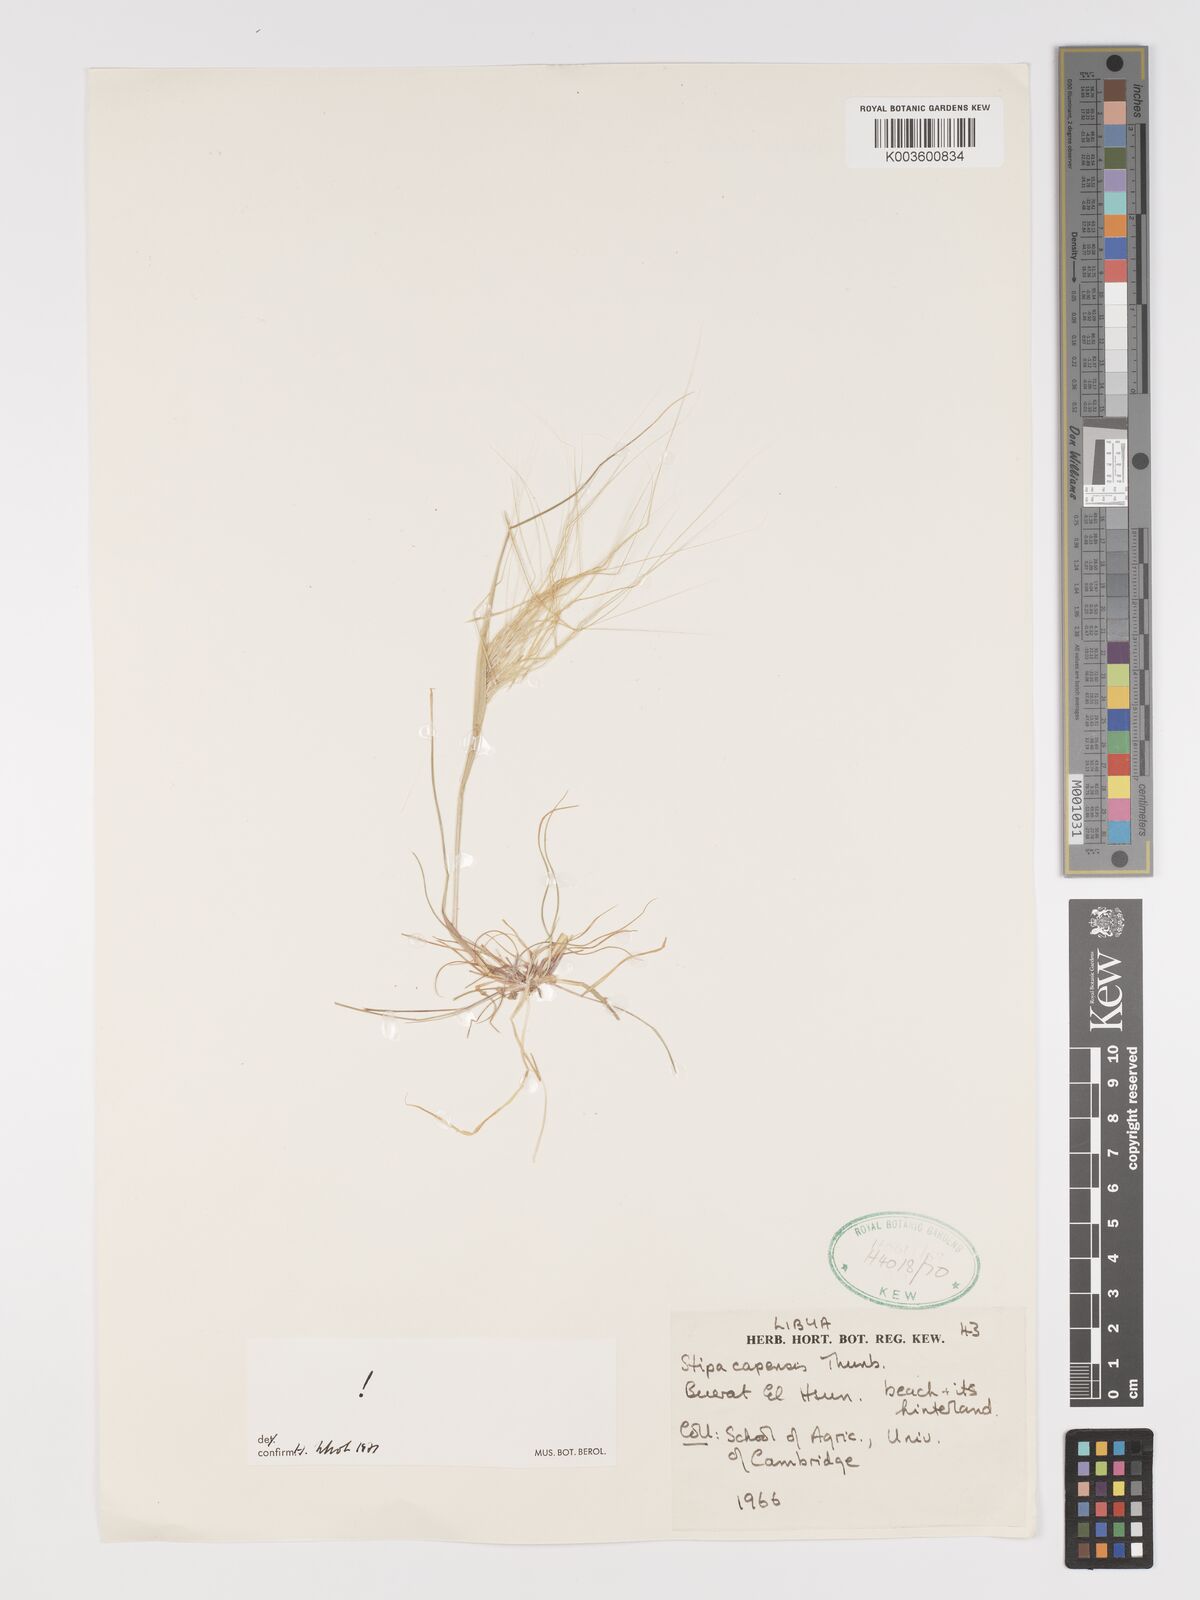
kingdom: Plantae
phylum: Tracheophyta
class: Liliopsida
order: Poales
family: Poaceae
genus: Stipellula
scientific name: Stipellula capensis
